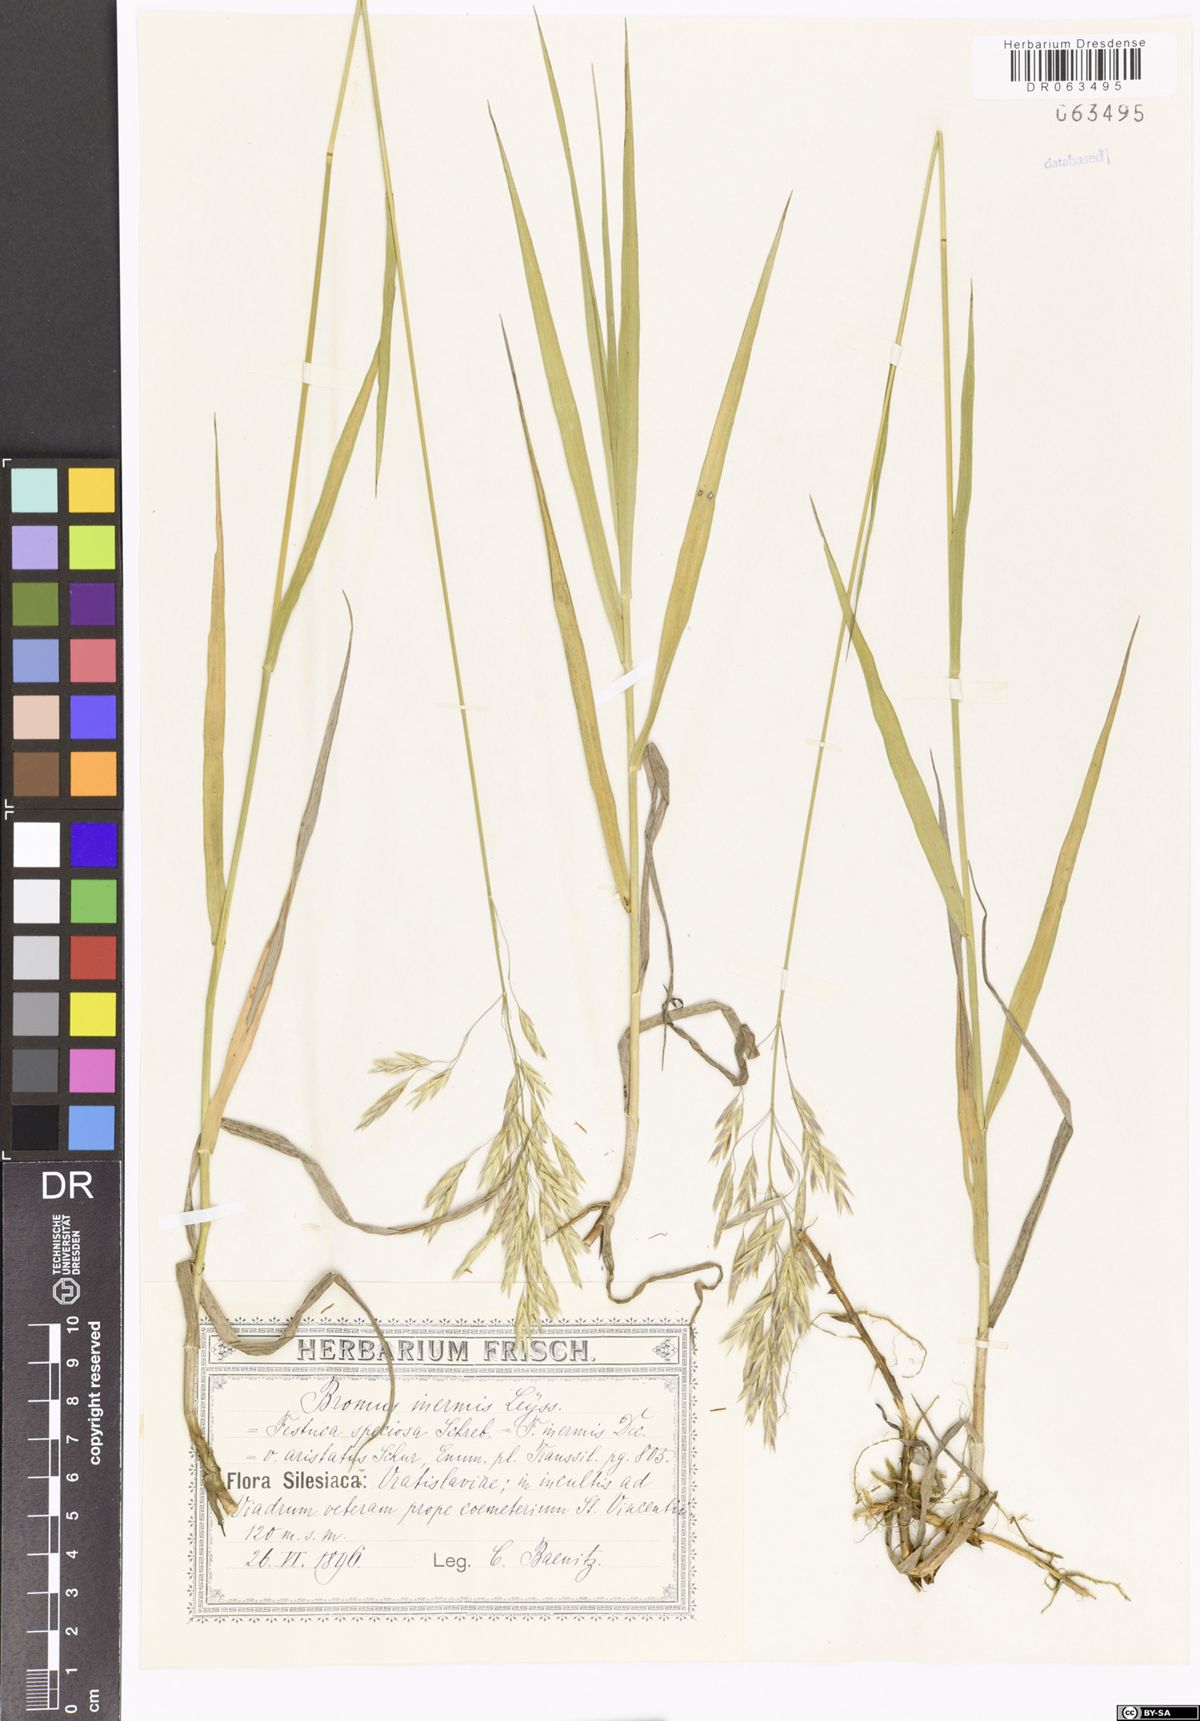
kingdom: Plantae
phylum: Tracheophyta
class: Liliopsida
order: Poales
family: Poaceae
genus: Bromus
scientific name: Bromus inermis
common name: Smooth brome
